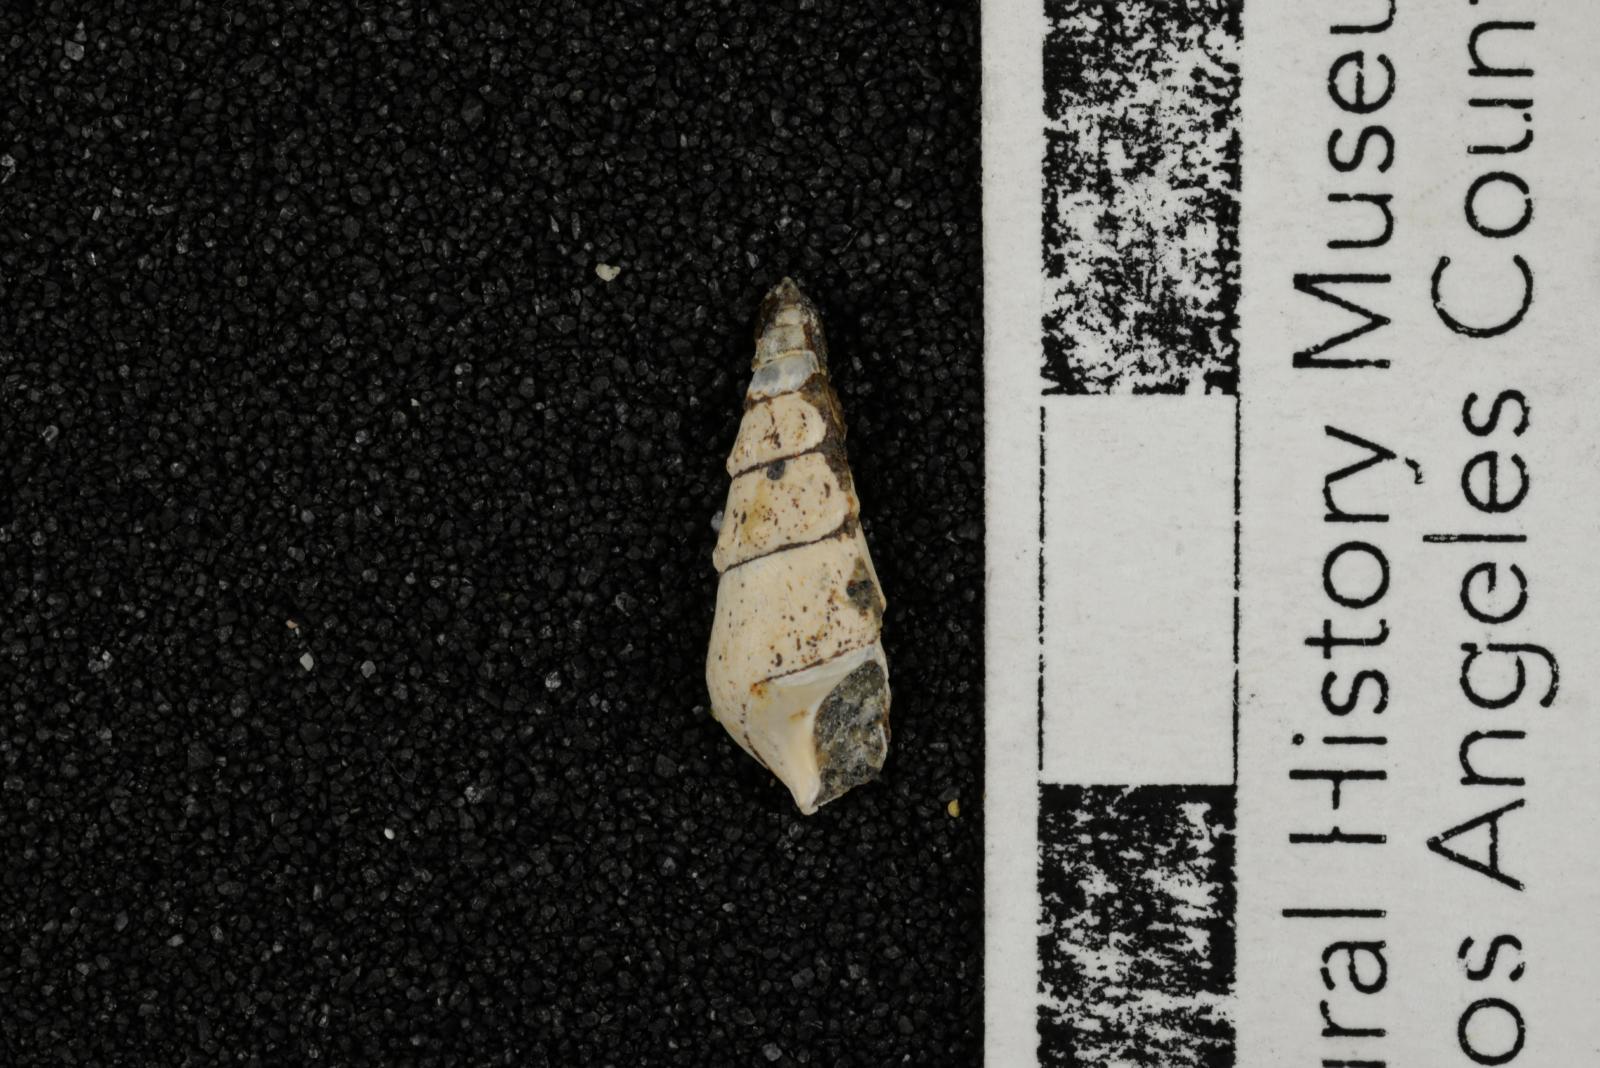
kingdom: Animalia
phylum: Mollusca
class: Gastropoda
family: Potamididae
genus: Potamides
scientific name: Potamides tenuis
